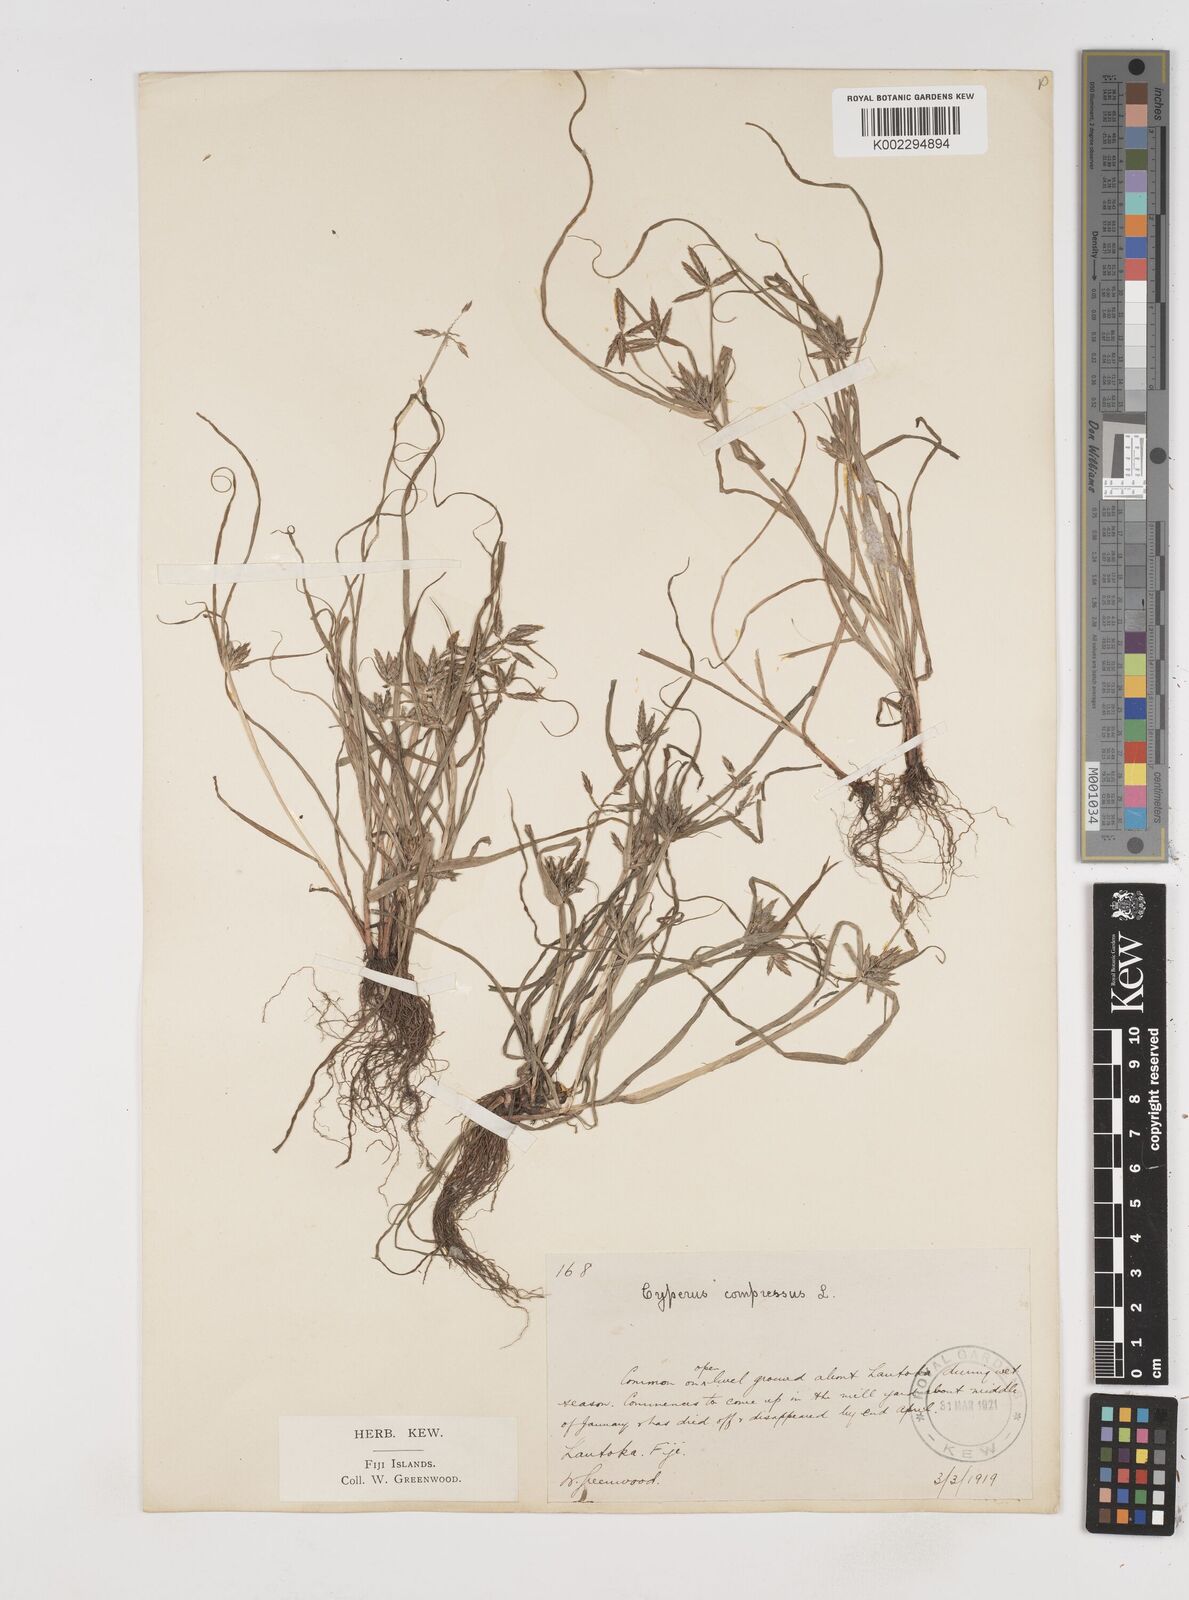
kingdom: Plantae
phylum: Tracheophyta
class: Liliopsida
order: Poales
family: Cyperaceae
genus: Cyperus
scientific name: Cyperus compressus
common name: Poorland flatsedge
